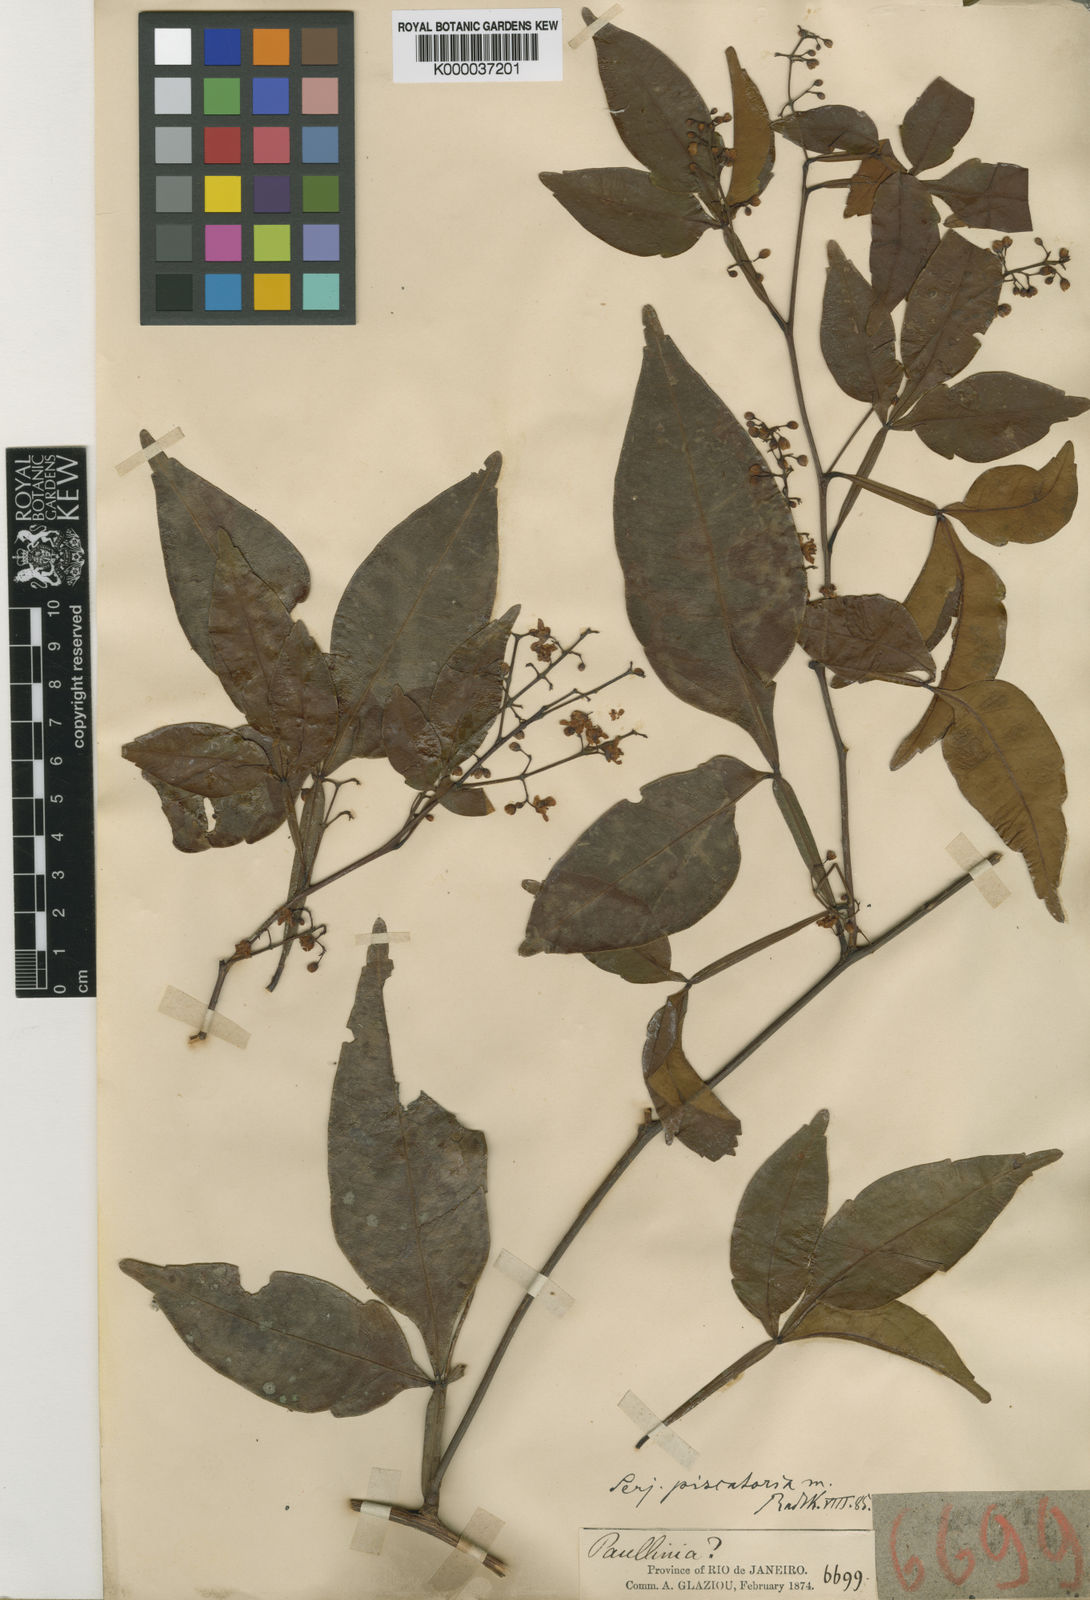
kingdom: Plantae
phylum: Tracheophyta
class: Magnoliopsida
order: Sapindales
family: Sapindaceae
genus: Serjania
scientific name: Serjania piscatoria
